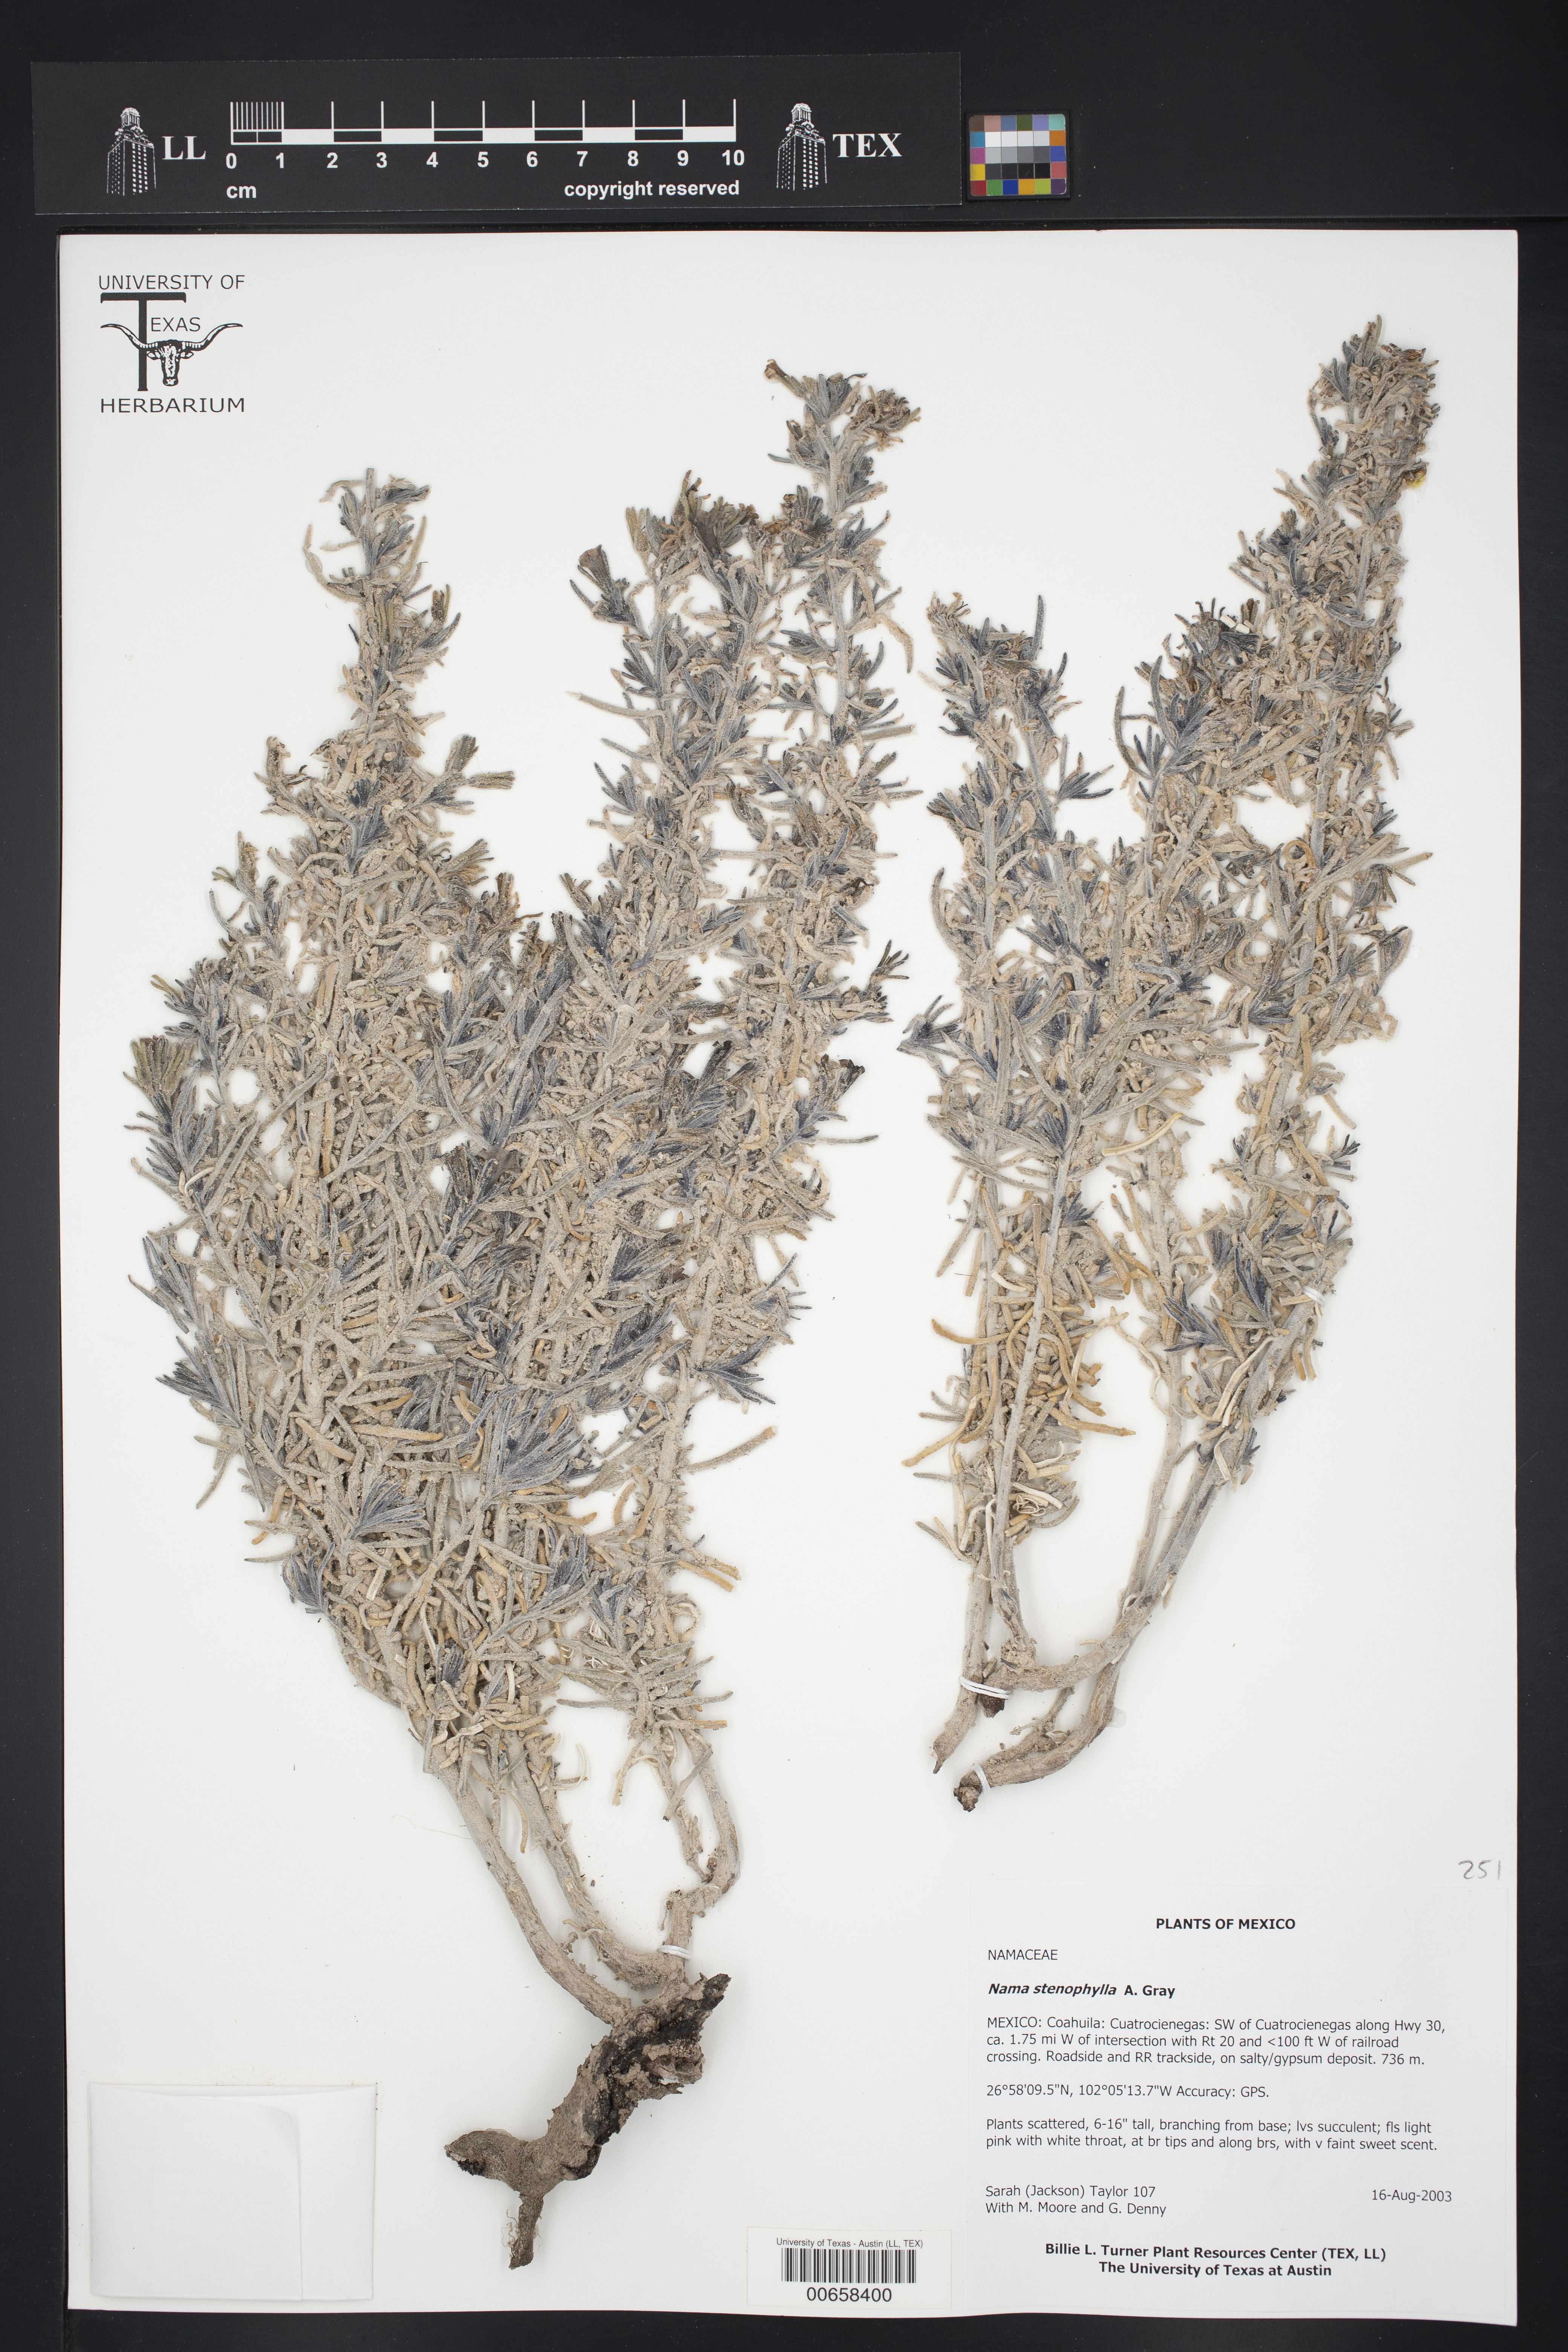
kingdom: Plantae
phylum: Tracheophyta
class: Magnoliopsida
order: Boraginales
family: Namaceae
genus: Nama
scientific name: Nama stenophylla
